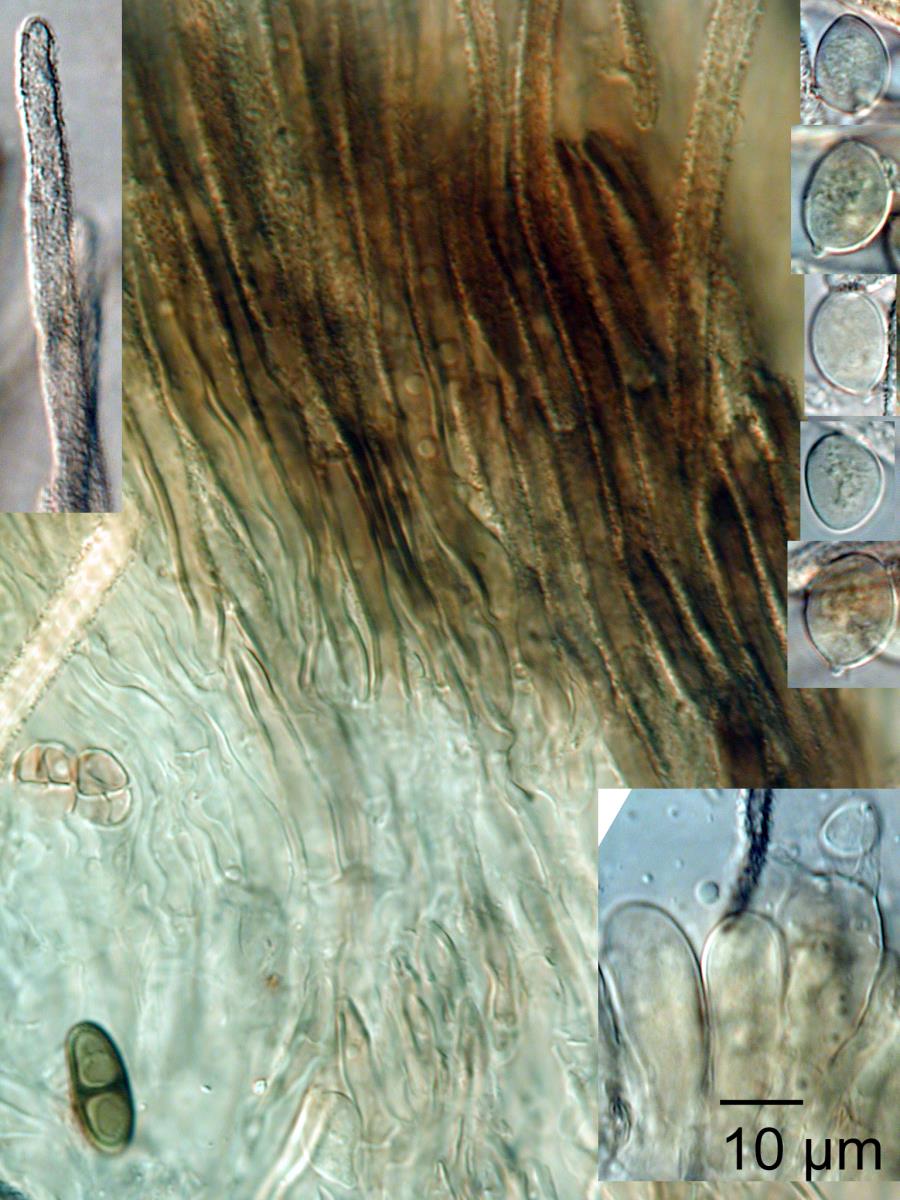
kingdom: Fungi
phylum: Basidiomycota
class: Agaricomycetes
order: Agaricales
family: Niaceae
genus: Lachnella
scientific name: Lachnella alboviolascens
